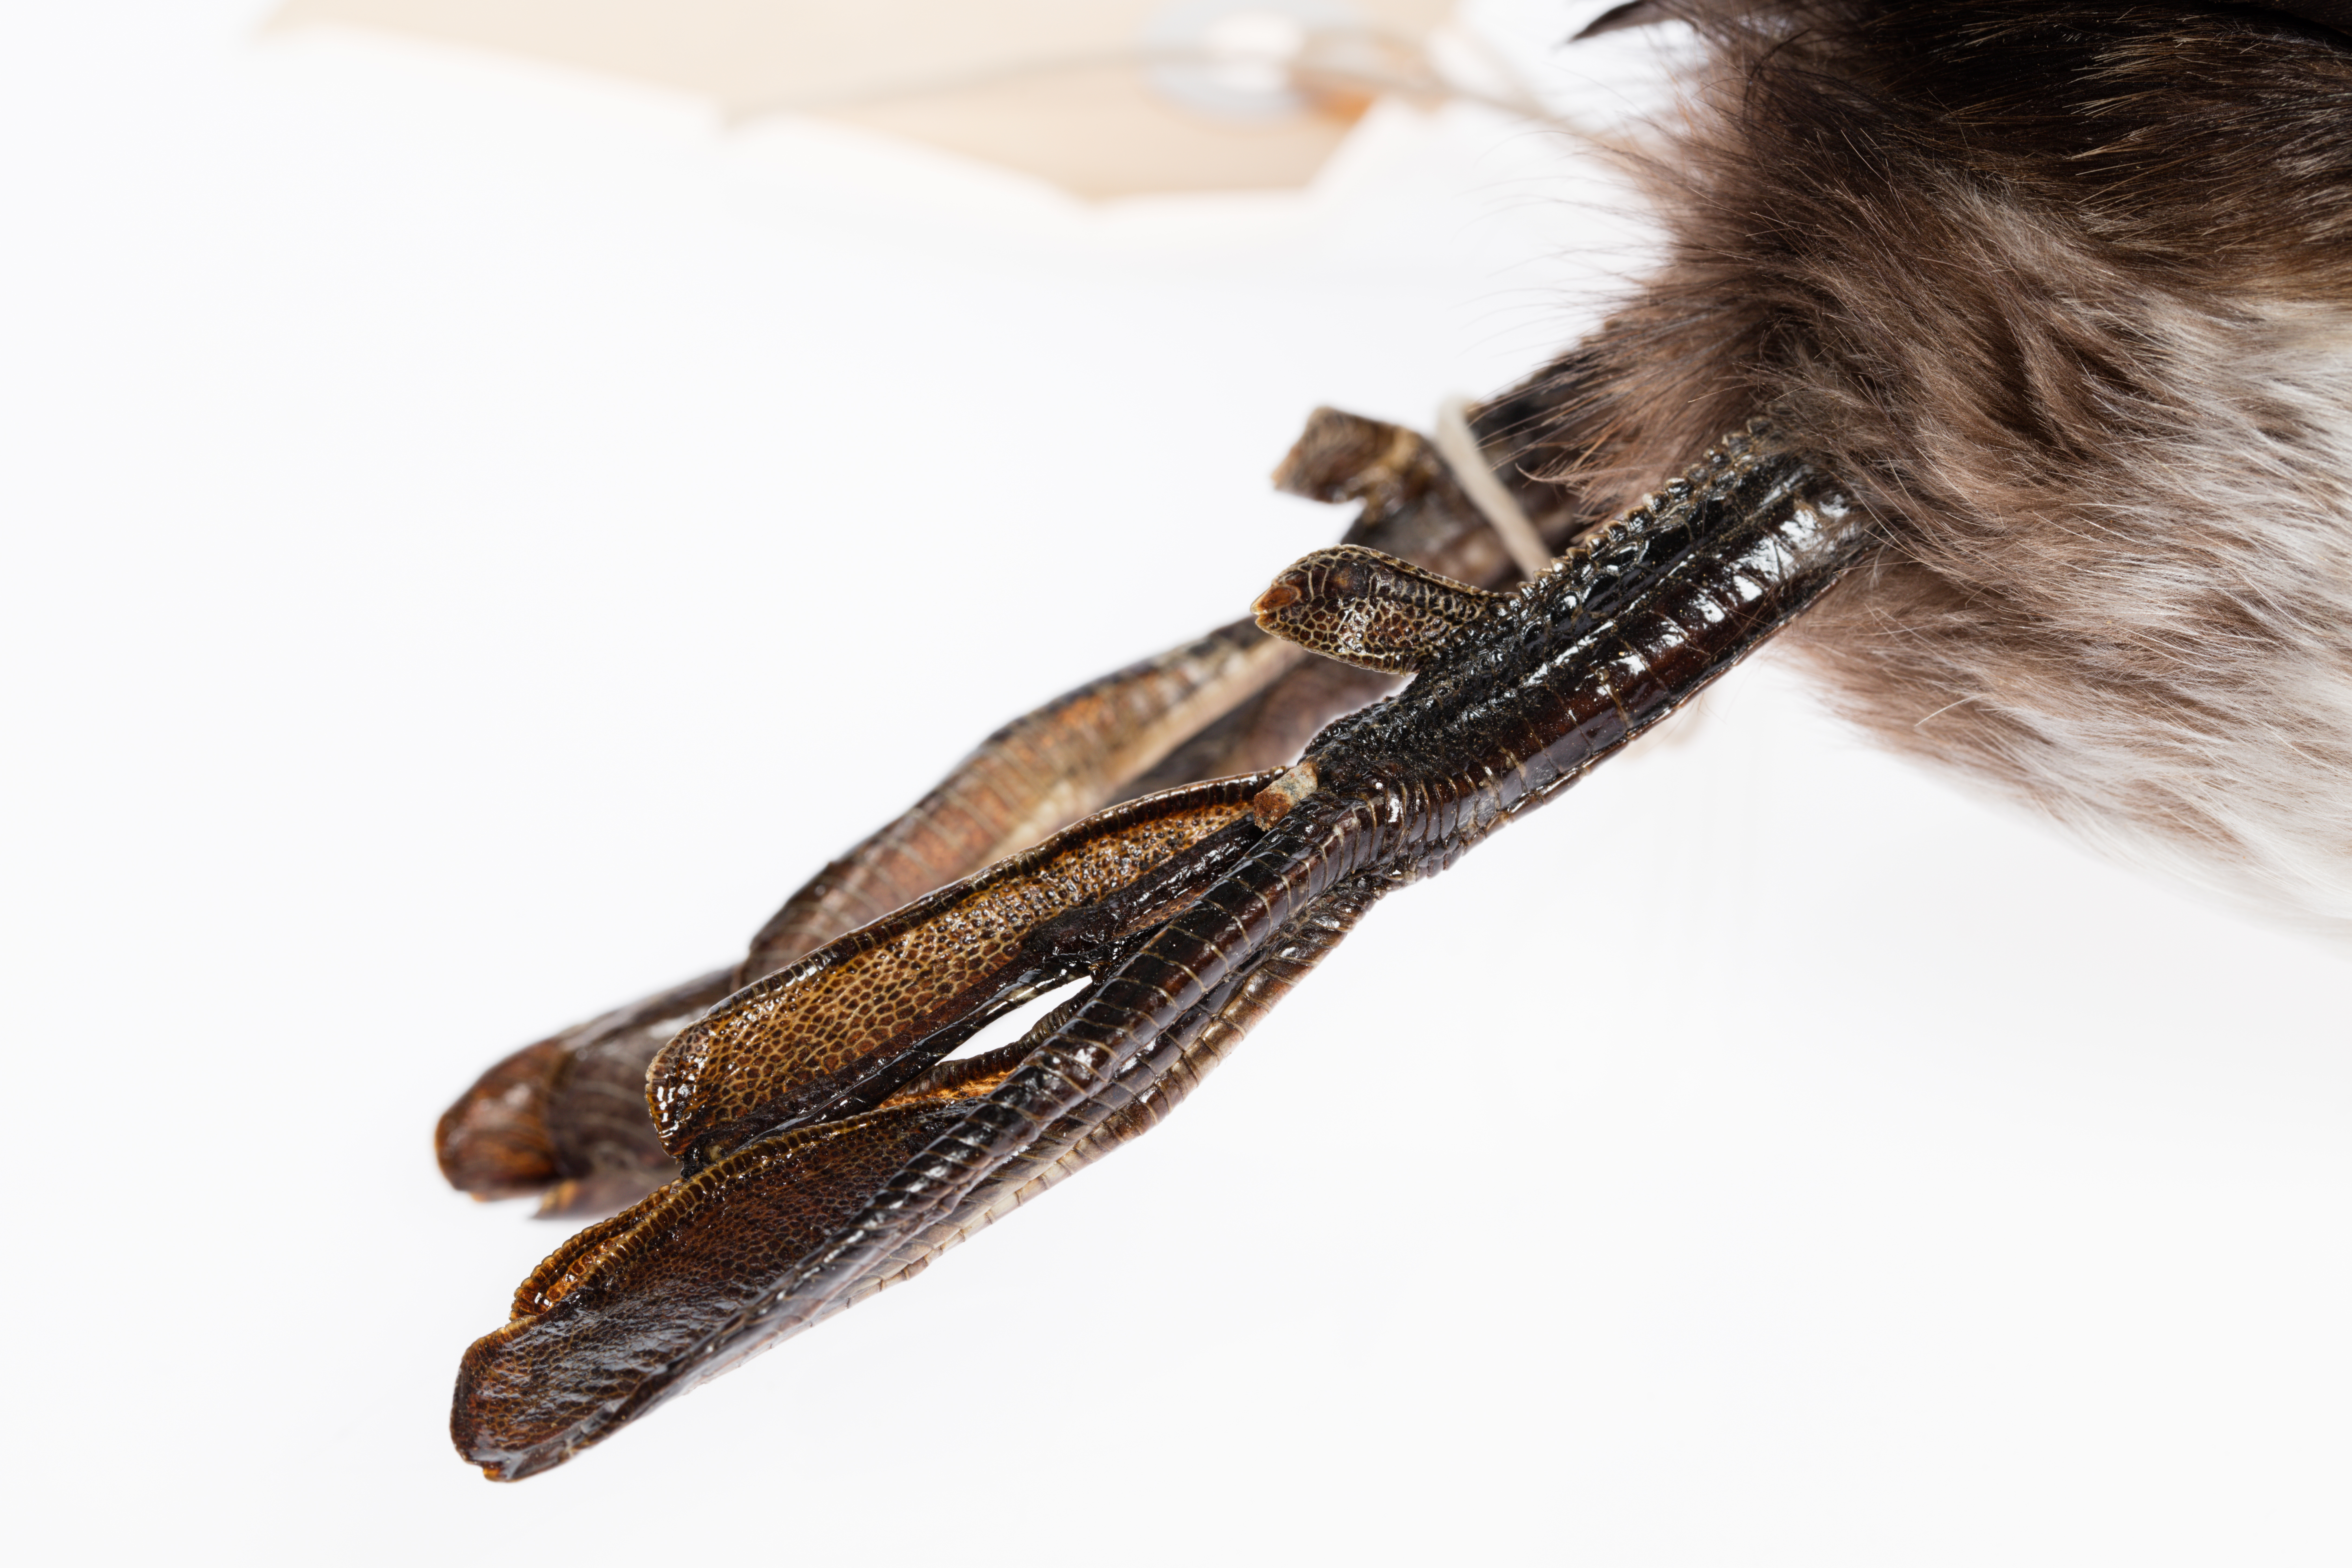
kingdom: Animalia
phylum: Chordata
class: Aves
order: Podicipediformes
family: Podicipedidae
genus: Poliocephalus
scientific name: Poliocephalus rufopectus
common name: New zealand grebe
